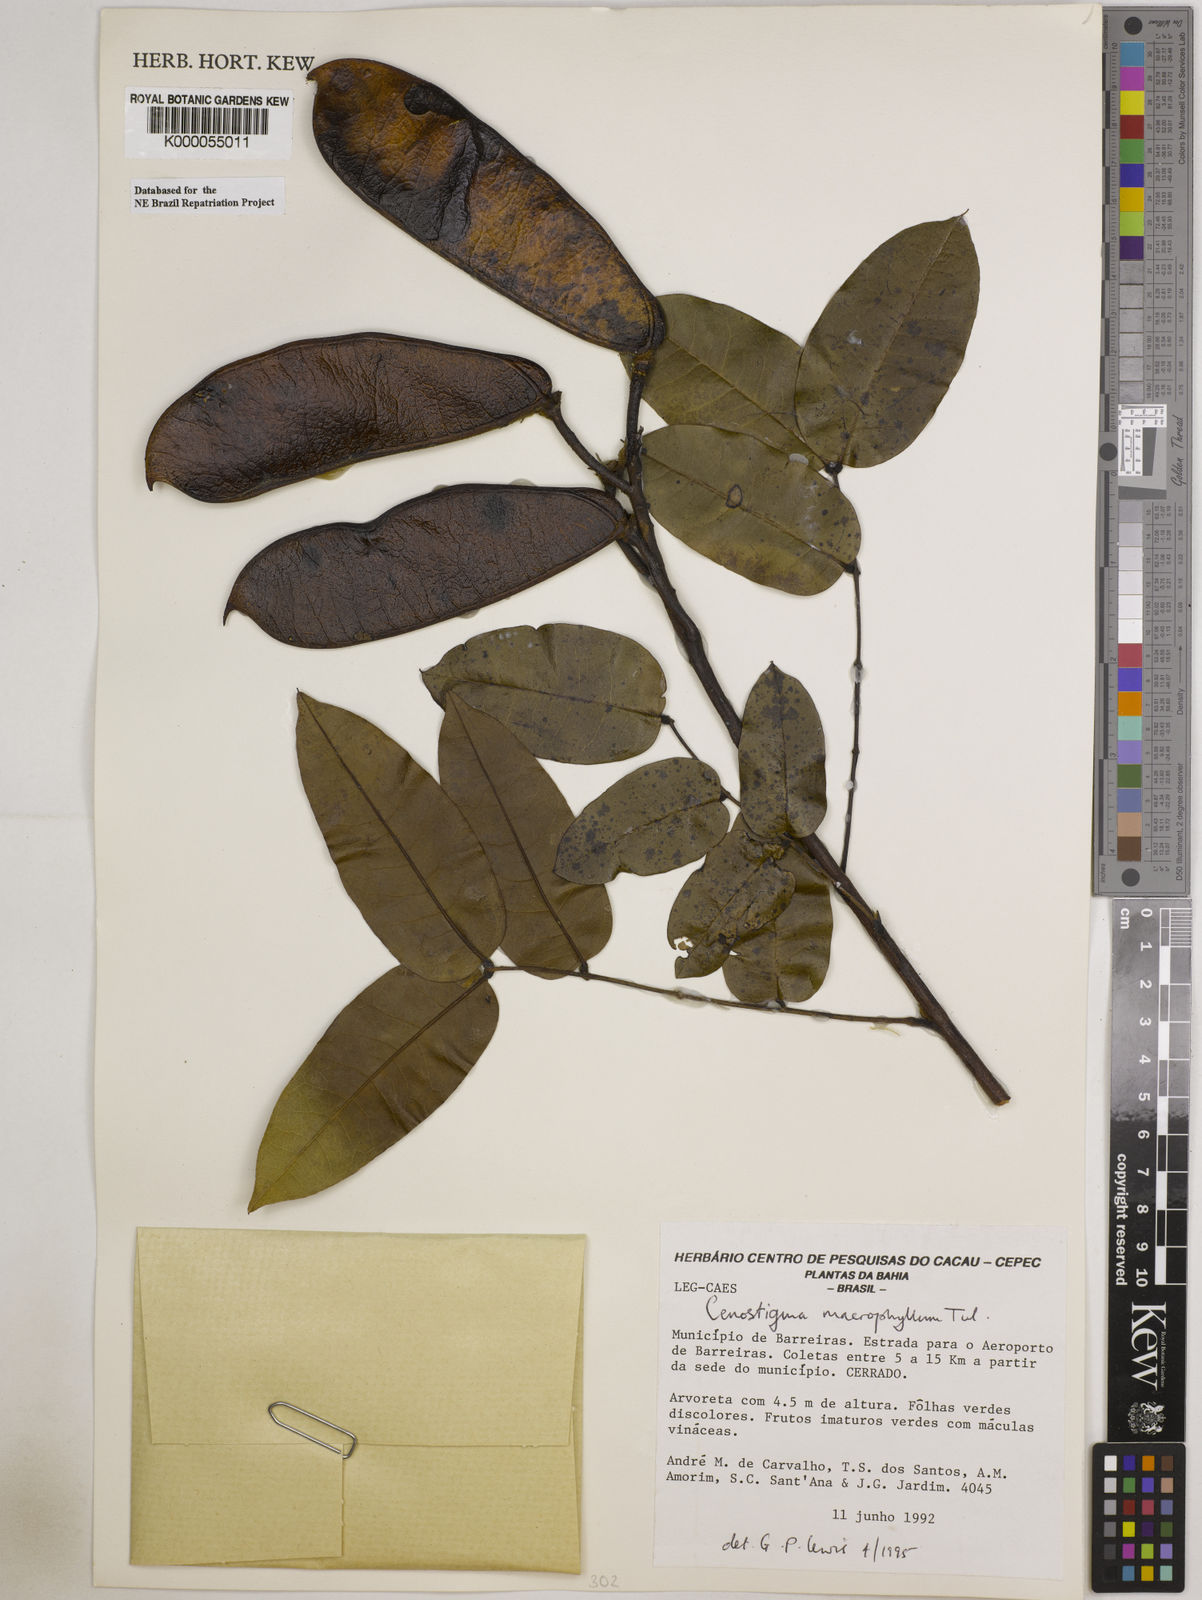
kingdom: Plantae
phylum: Tracheophyta
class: Magnoliopsida
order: Fabales
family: Fabaceae
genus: Cenostigma
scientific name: Cenostigma macrophyllum
